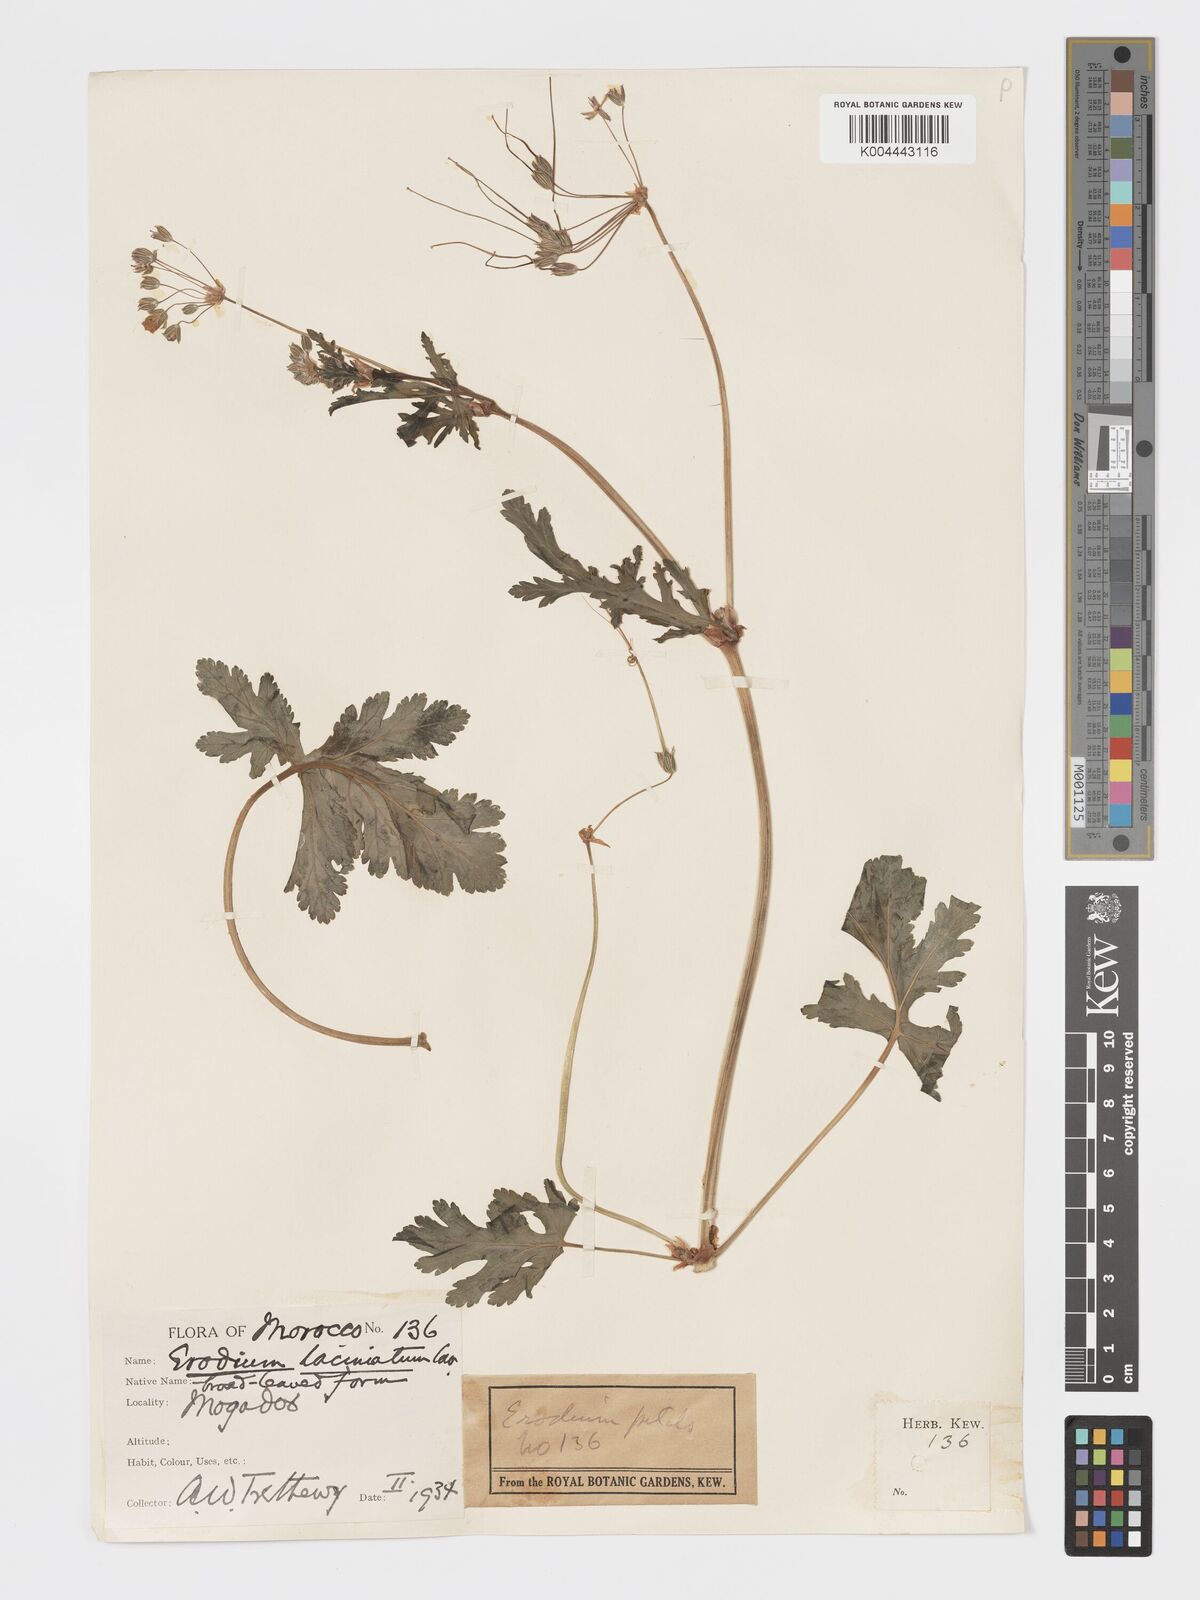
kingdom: Plantae
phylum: Tracheophyta
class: Magnoliopsida
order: Geraniales
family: Geraniaceae
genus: Erodium
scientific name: Erodium hesperium
